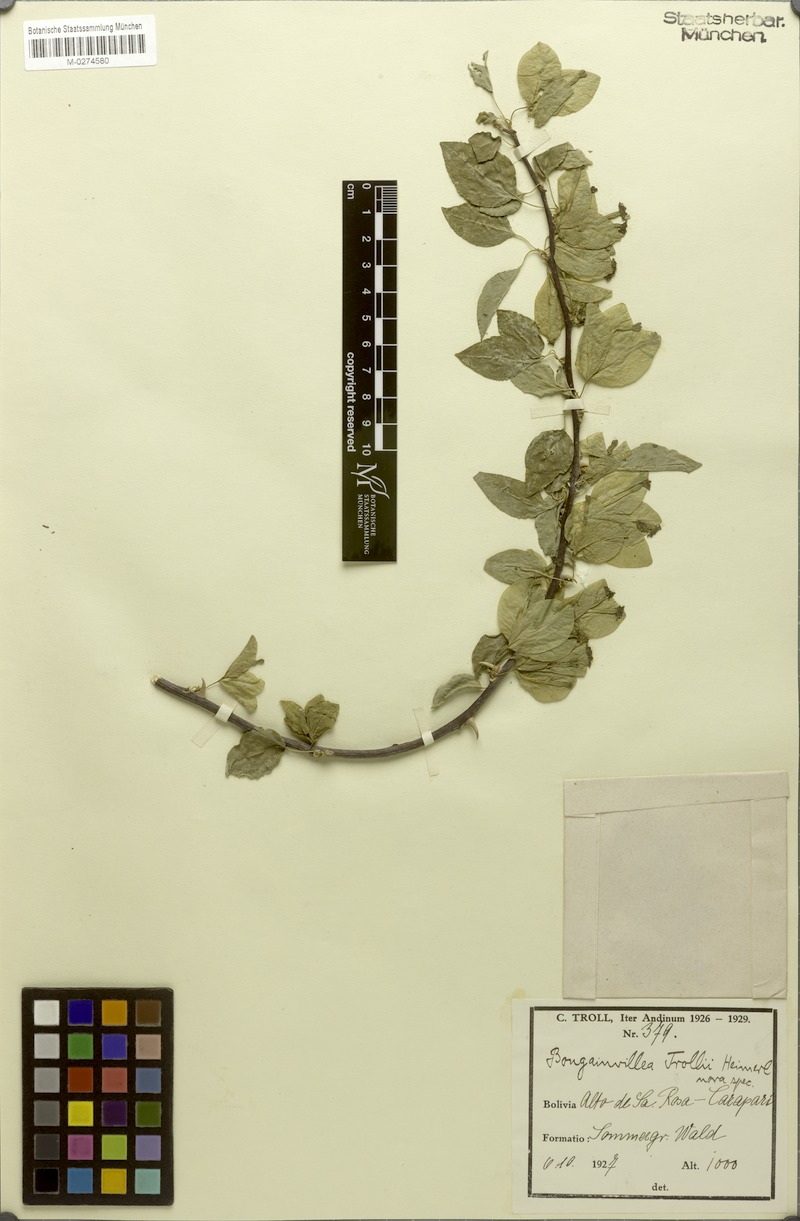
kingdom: Plantae
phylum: Tracheophyta
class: Magnoliopsida
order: Caryophyllales
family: Nyctaginaceae
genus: Bougainvillea
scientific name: Bougainvillea trollii
